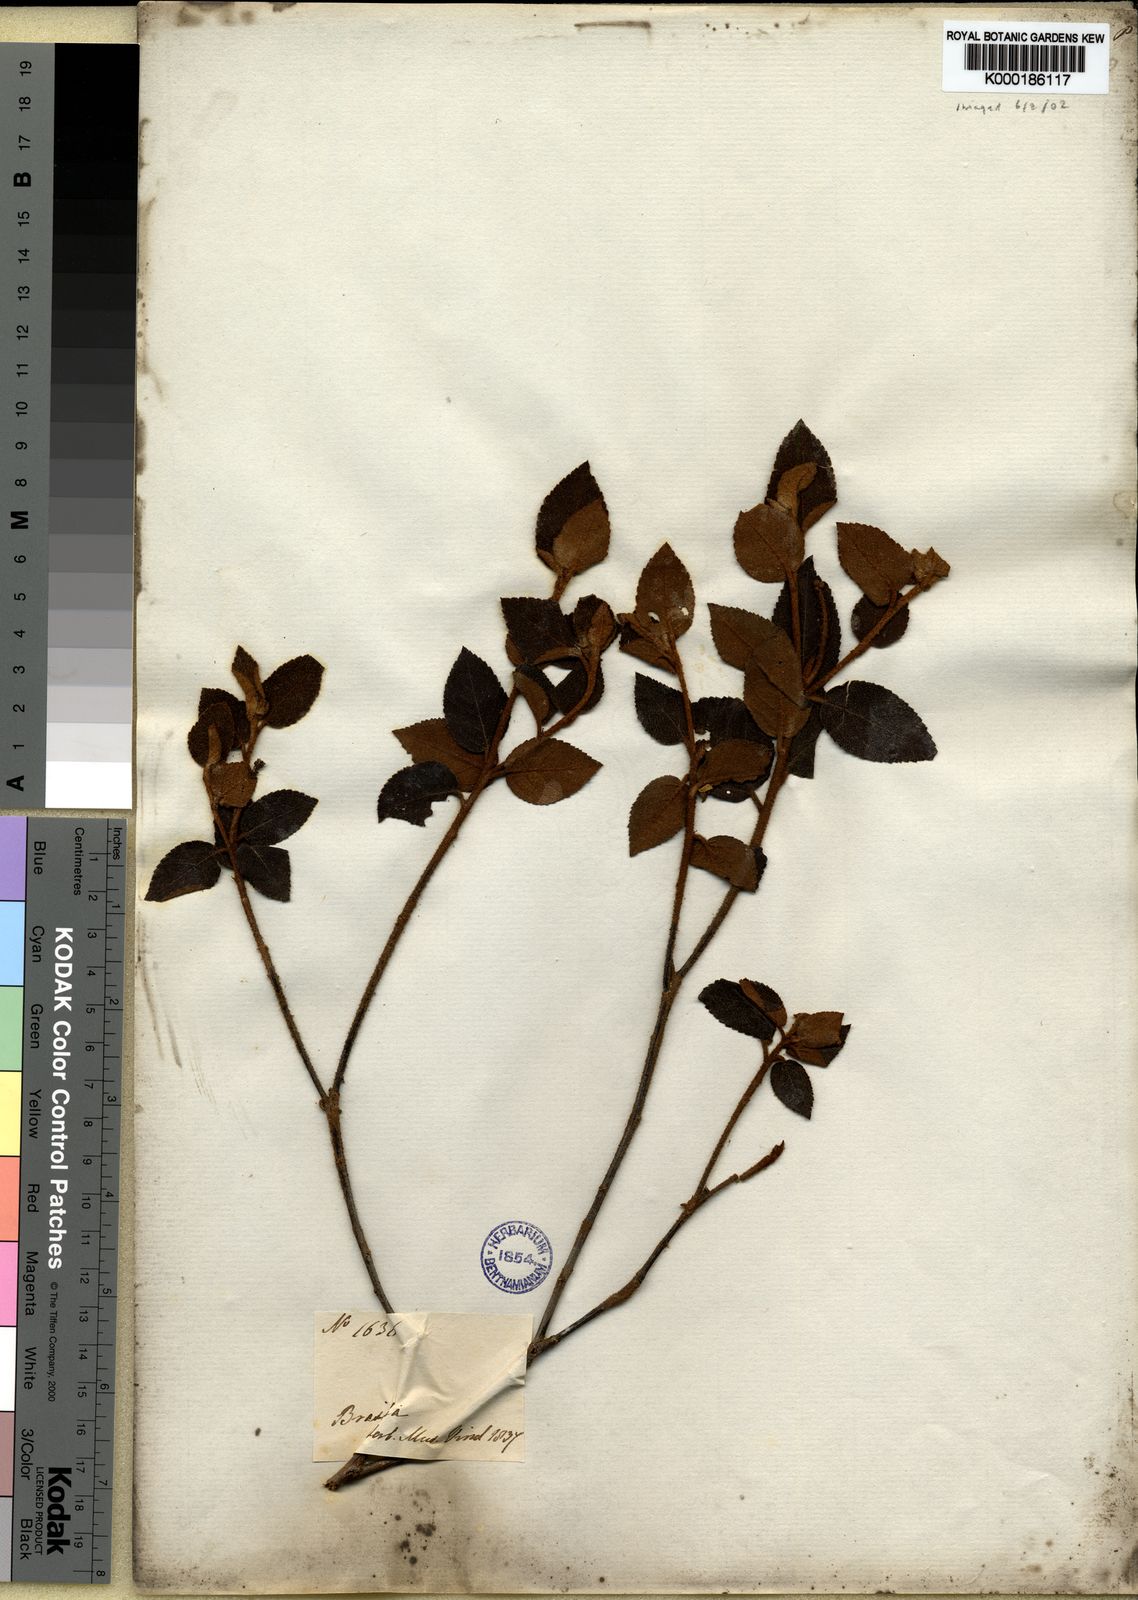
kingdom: Plantae
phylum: Tracheophyta
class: Magnoliopsida
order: Malpighiales
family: Euphorbiaceae
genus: Croton
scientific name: Croton
